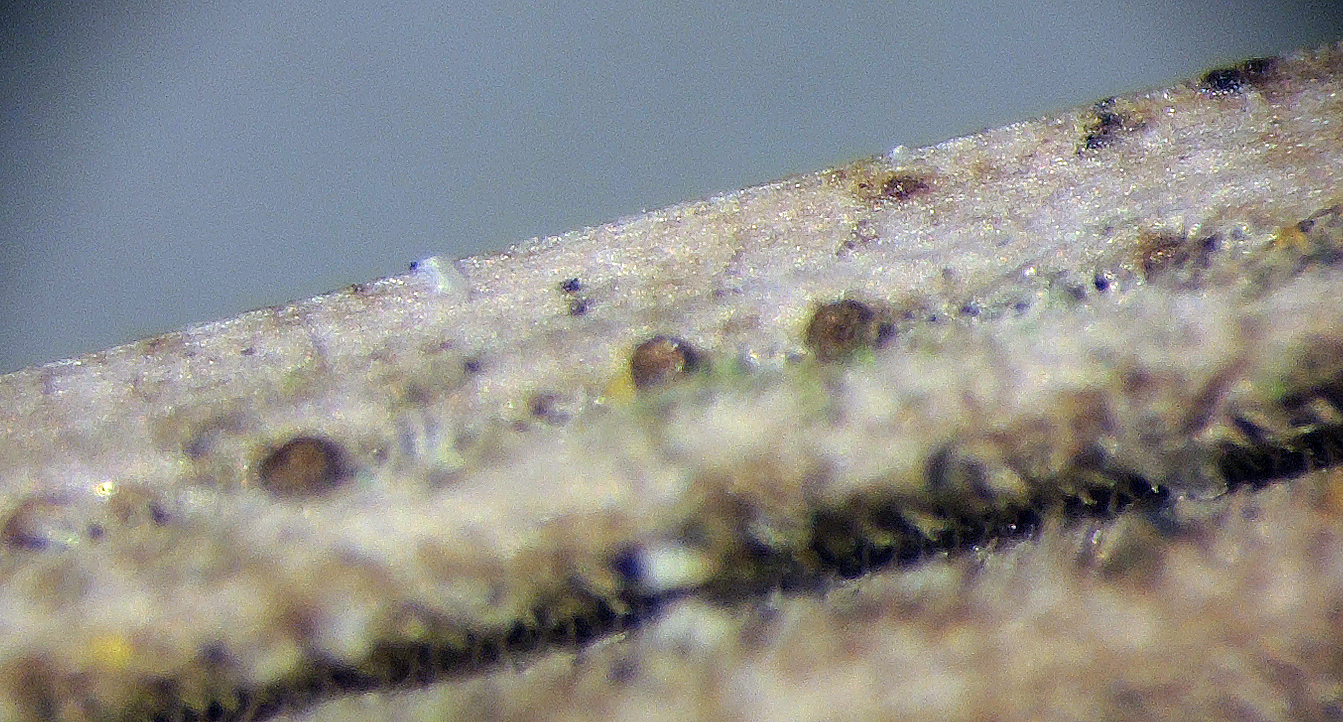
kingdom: Protozoa
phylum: Mycetozoa
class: Myxomycetes
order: Cribrariales
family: Liceaceae
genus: Licea
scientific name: Licea kleistobolus
